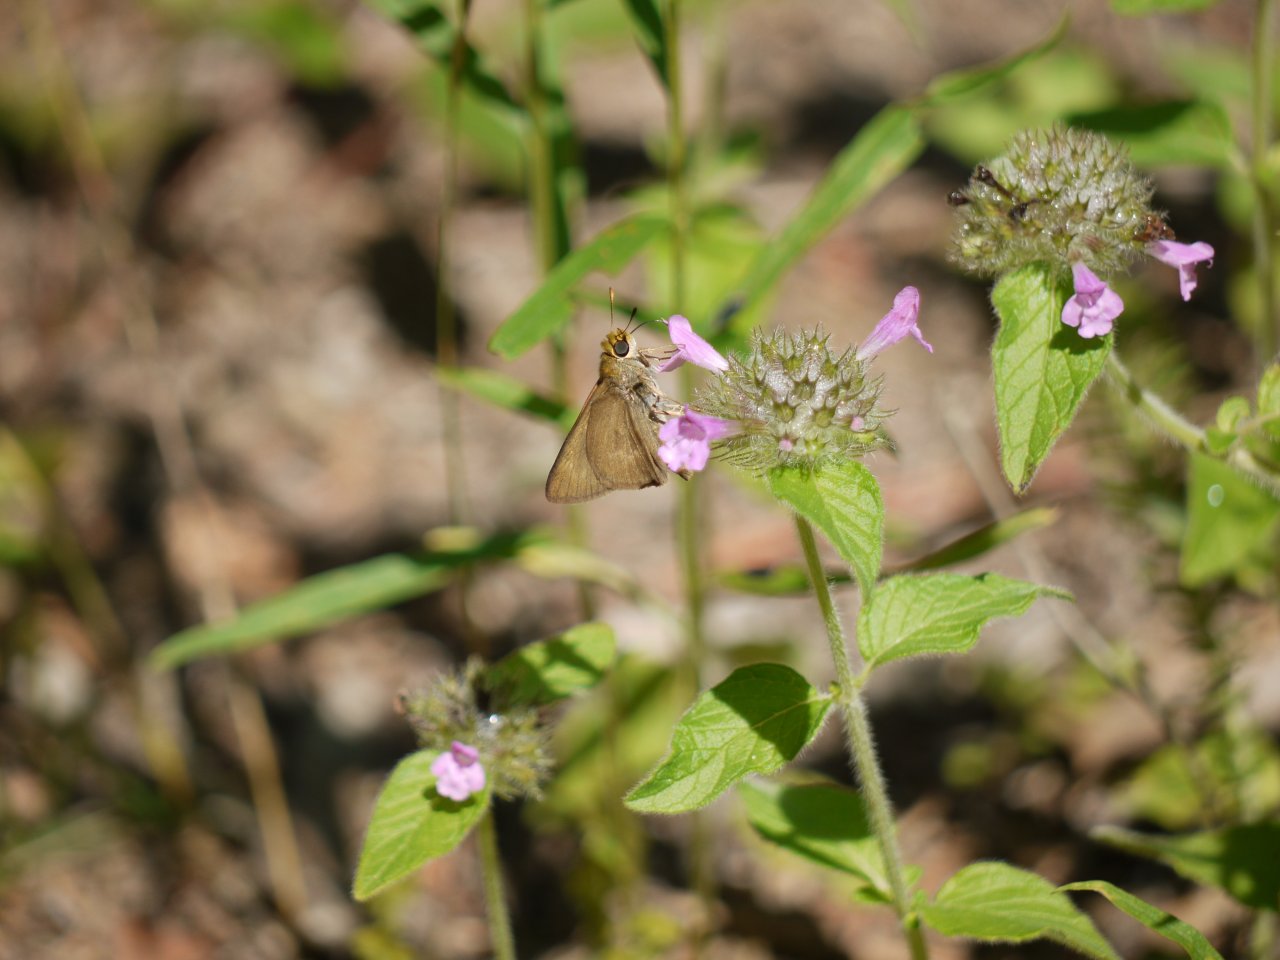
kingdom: Animalia
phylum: Arthropoda
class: Insecta
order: Lepidoptera
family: Hesperiidae
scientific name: Hesperiidae
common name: Skippers
